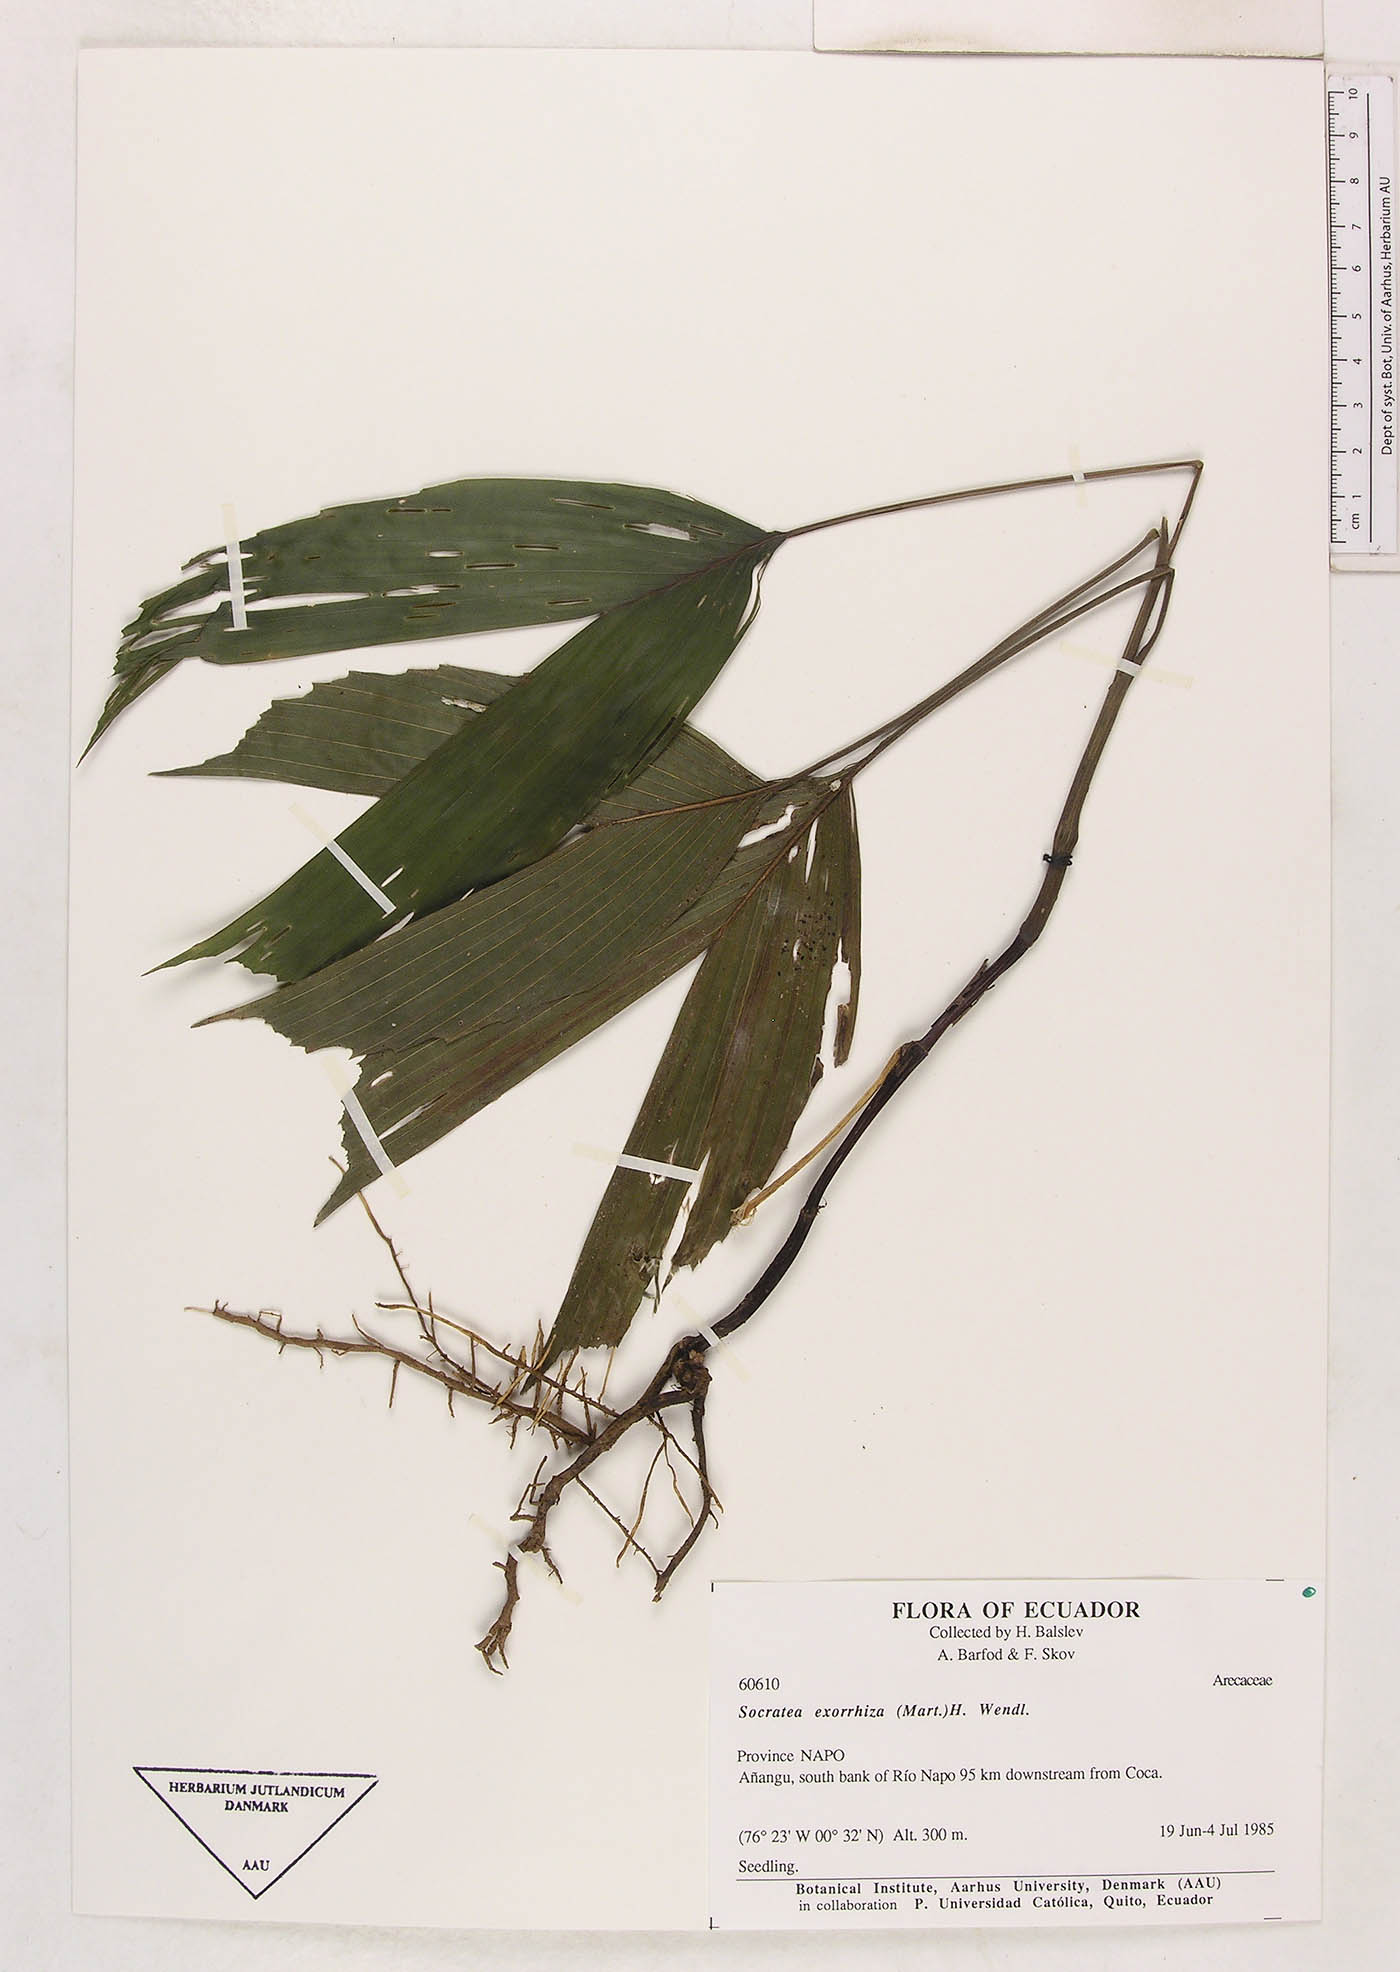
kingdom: Plantae
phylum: Tracheophyta
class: Liliopsida
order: Arecales
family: Arecaceae
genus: Socratea
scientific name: Socratea exorrhiza
